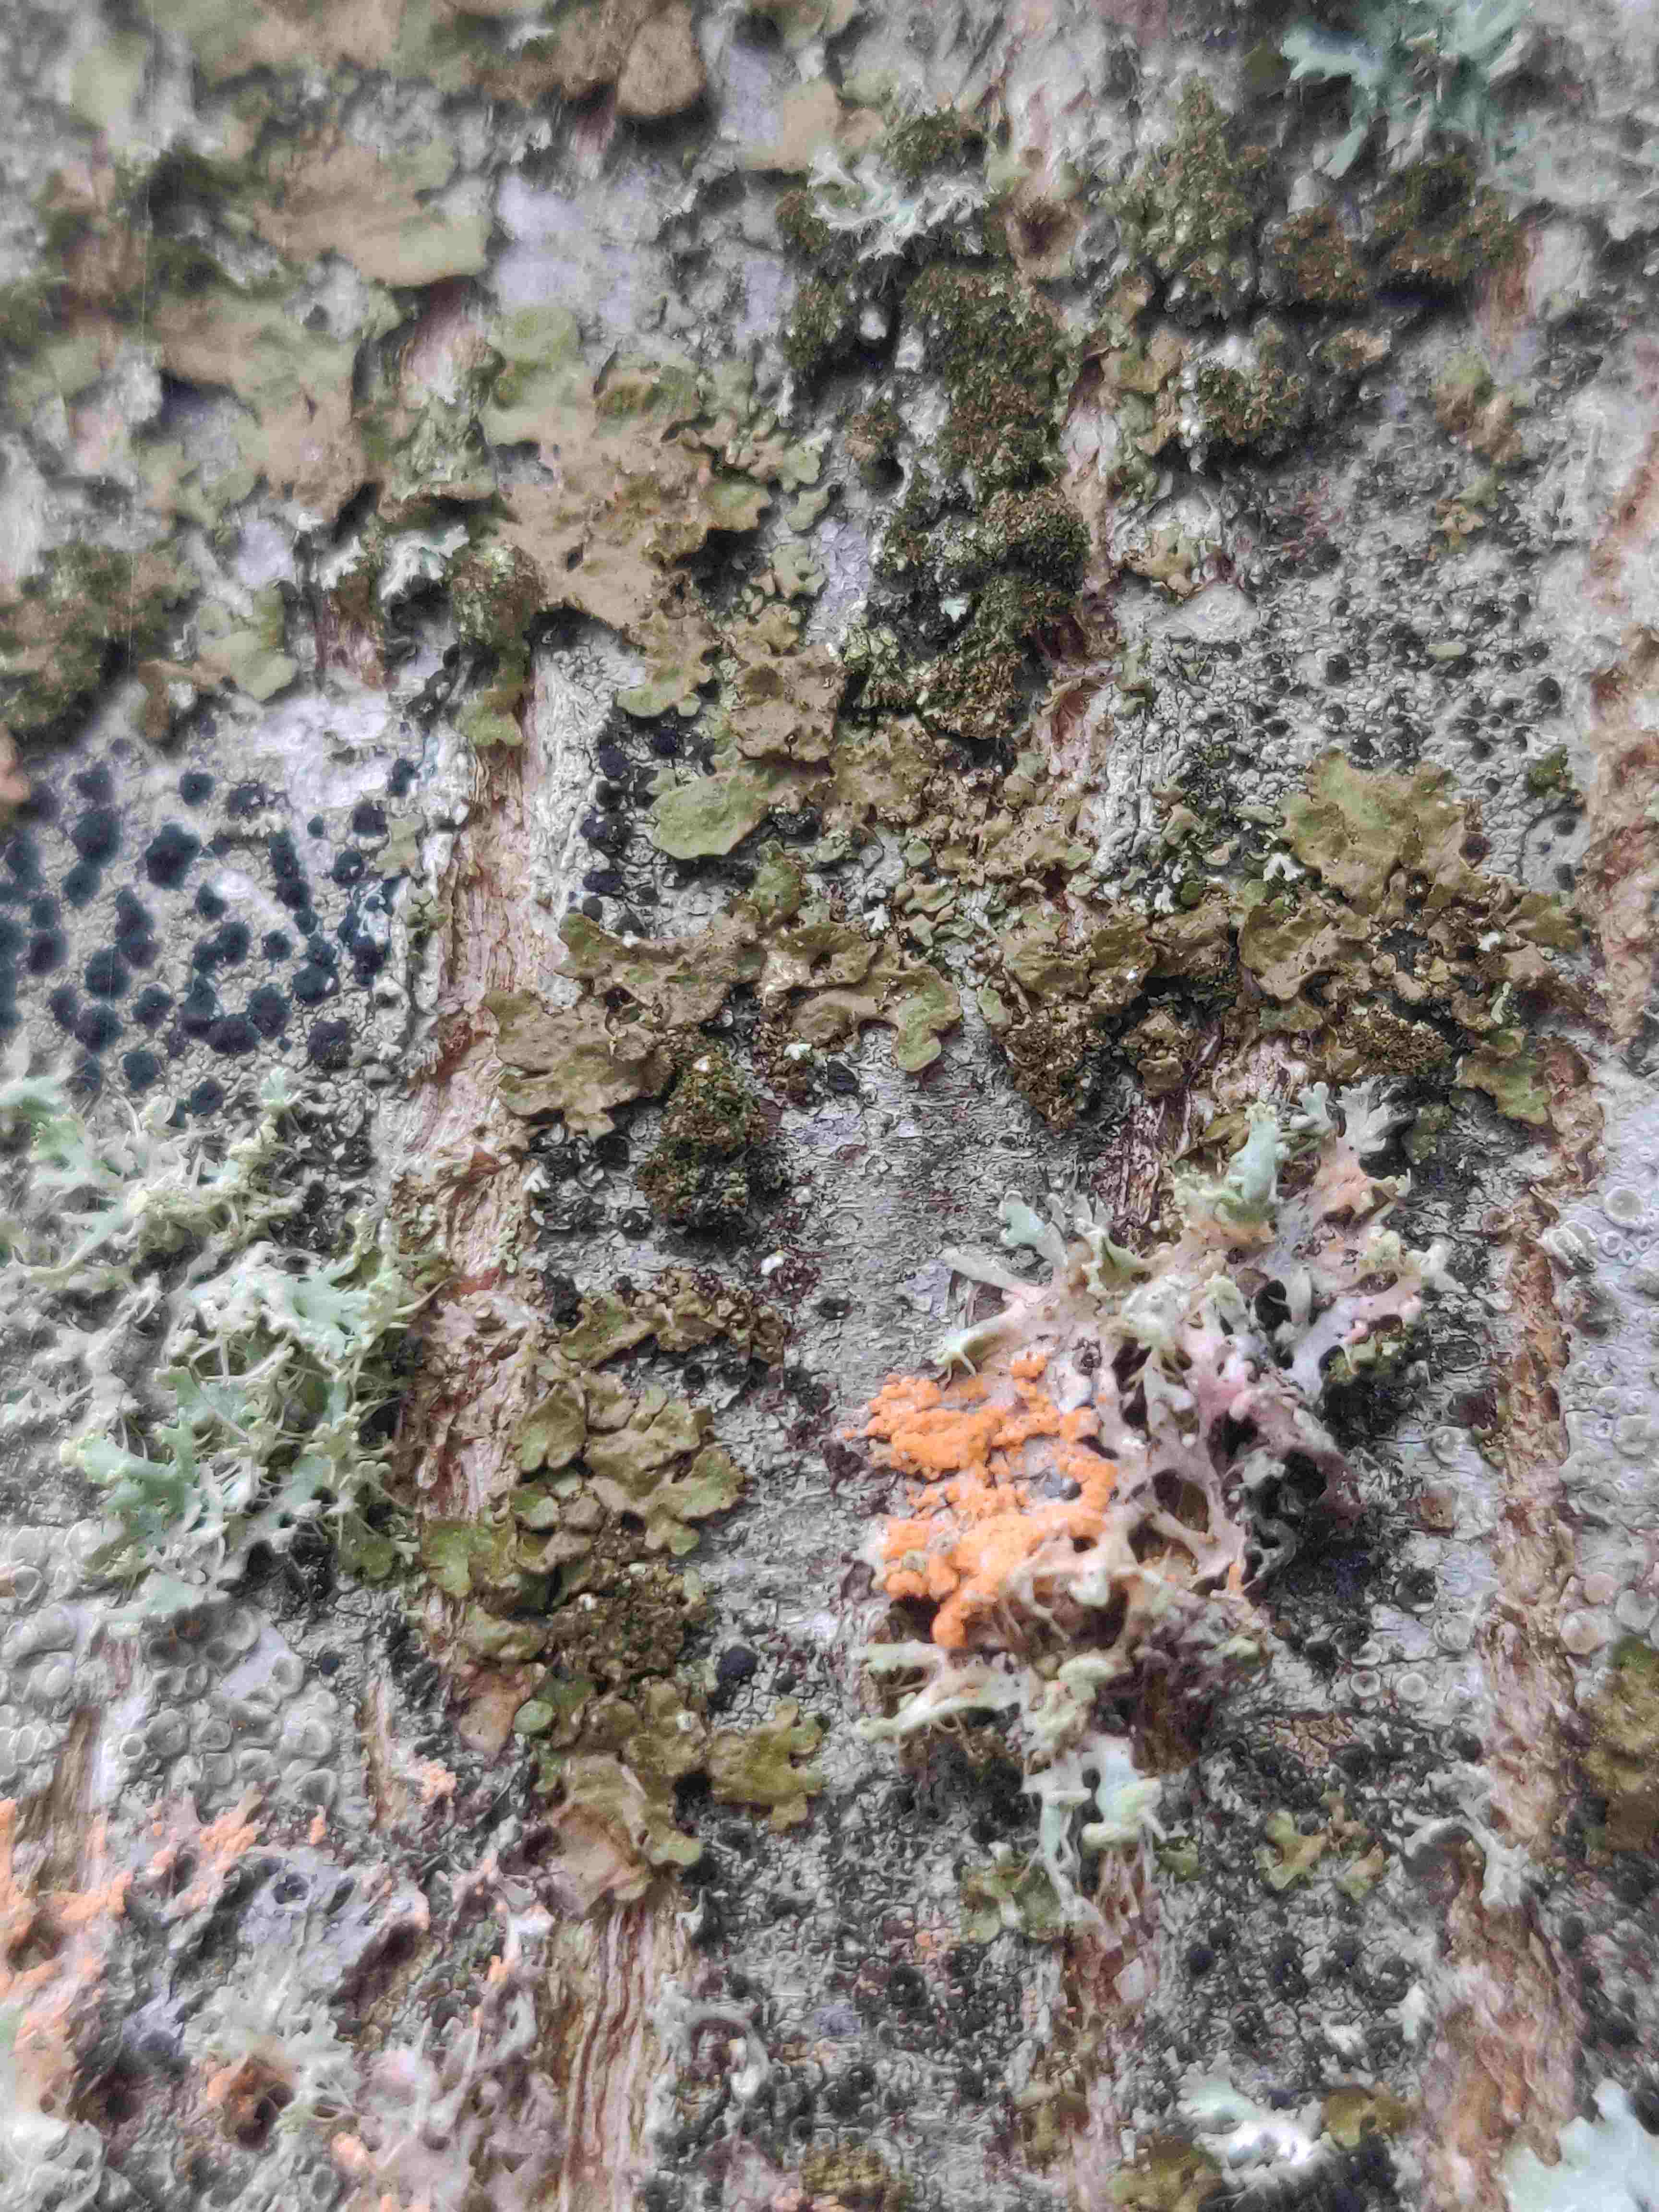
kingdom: Fungi
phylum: Basidiomycota
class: Agaricomycetes
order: Corticiales
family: Corticiaceae
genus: Erythricium
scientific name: Erythricium aurantiacum
